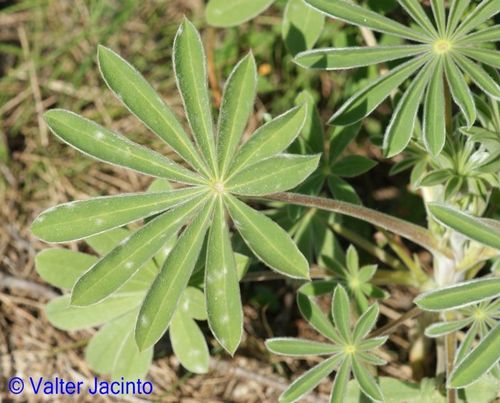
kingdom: Plantae
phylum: Tracheophyta
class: Magnoliopsida
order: Fabales
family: Fabaceae
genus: Lupinus
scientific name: Lupinus luteus
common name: European yellow lupine
